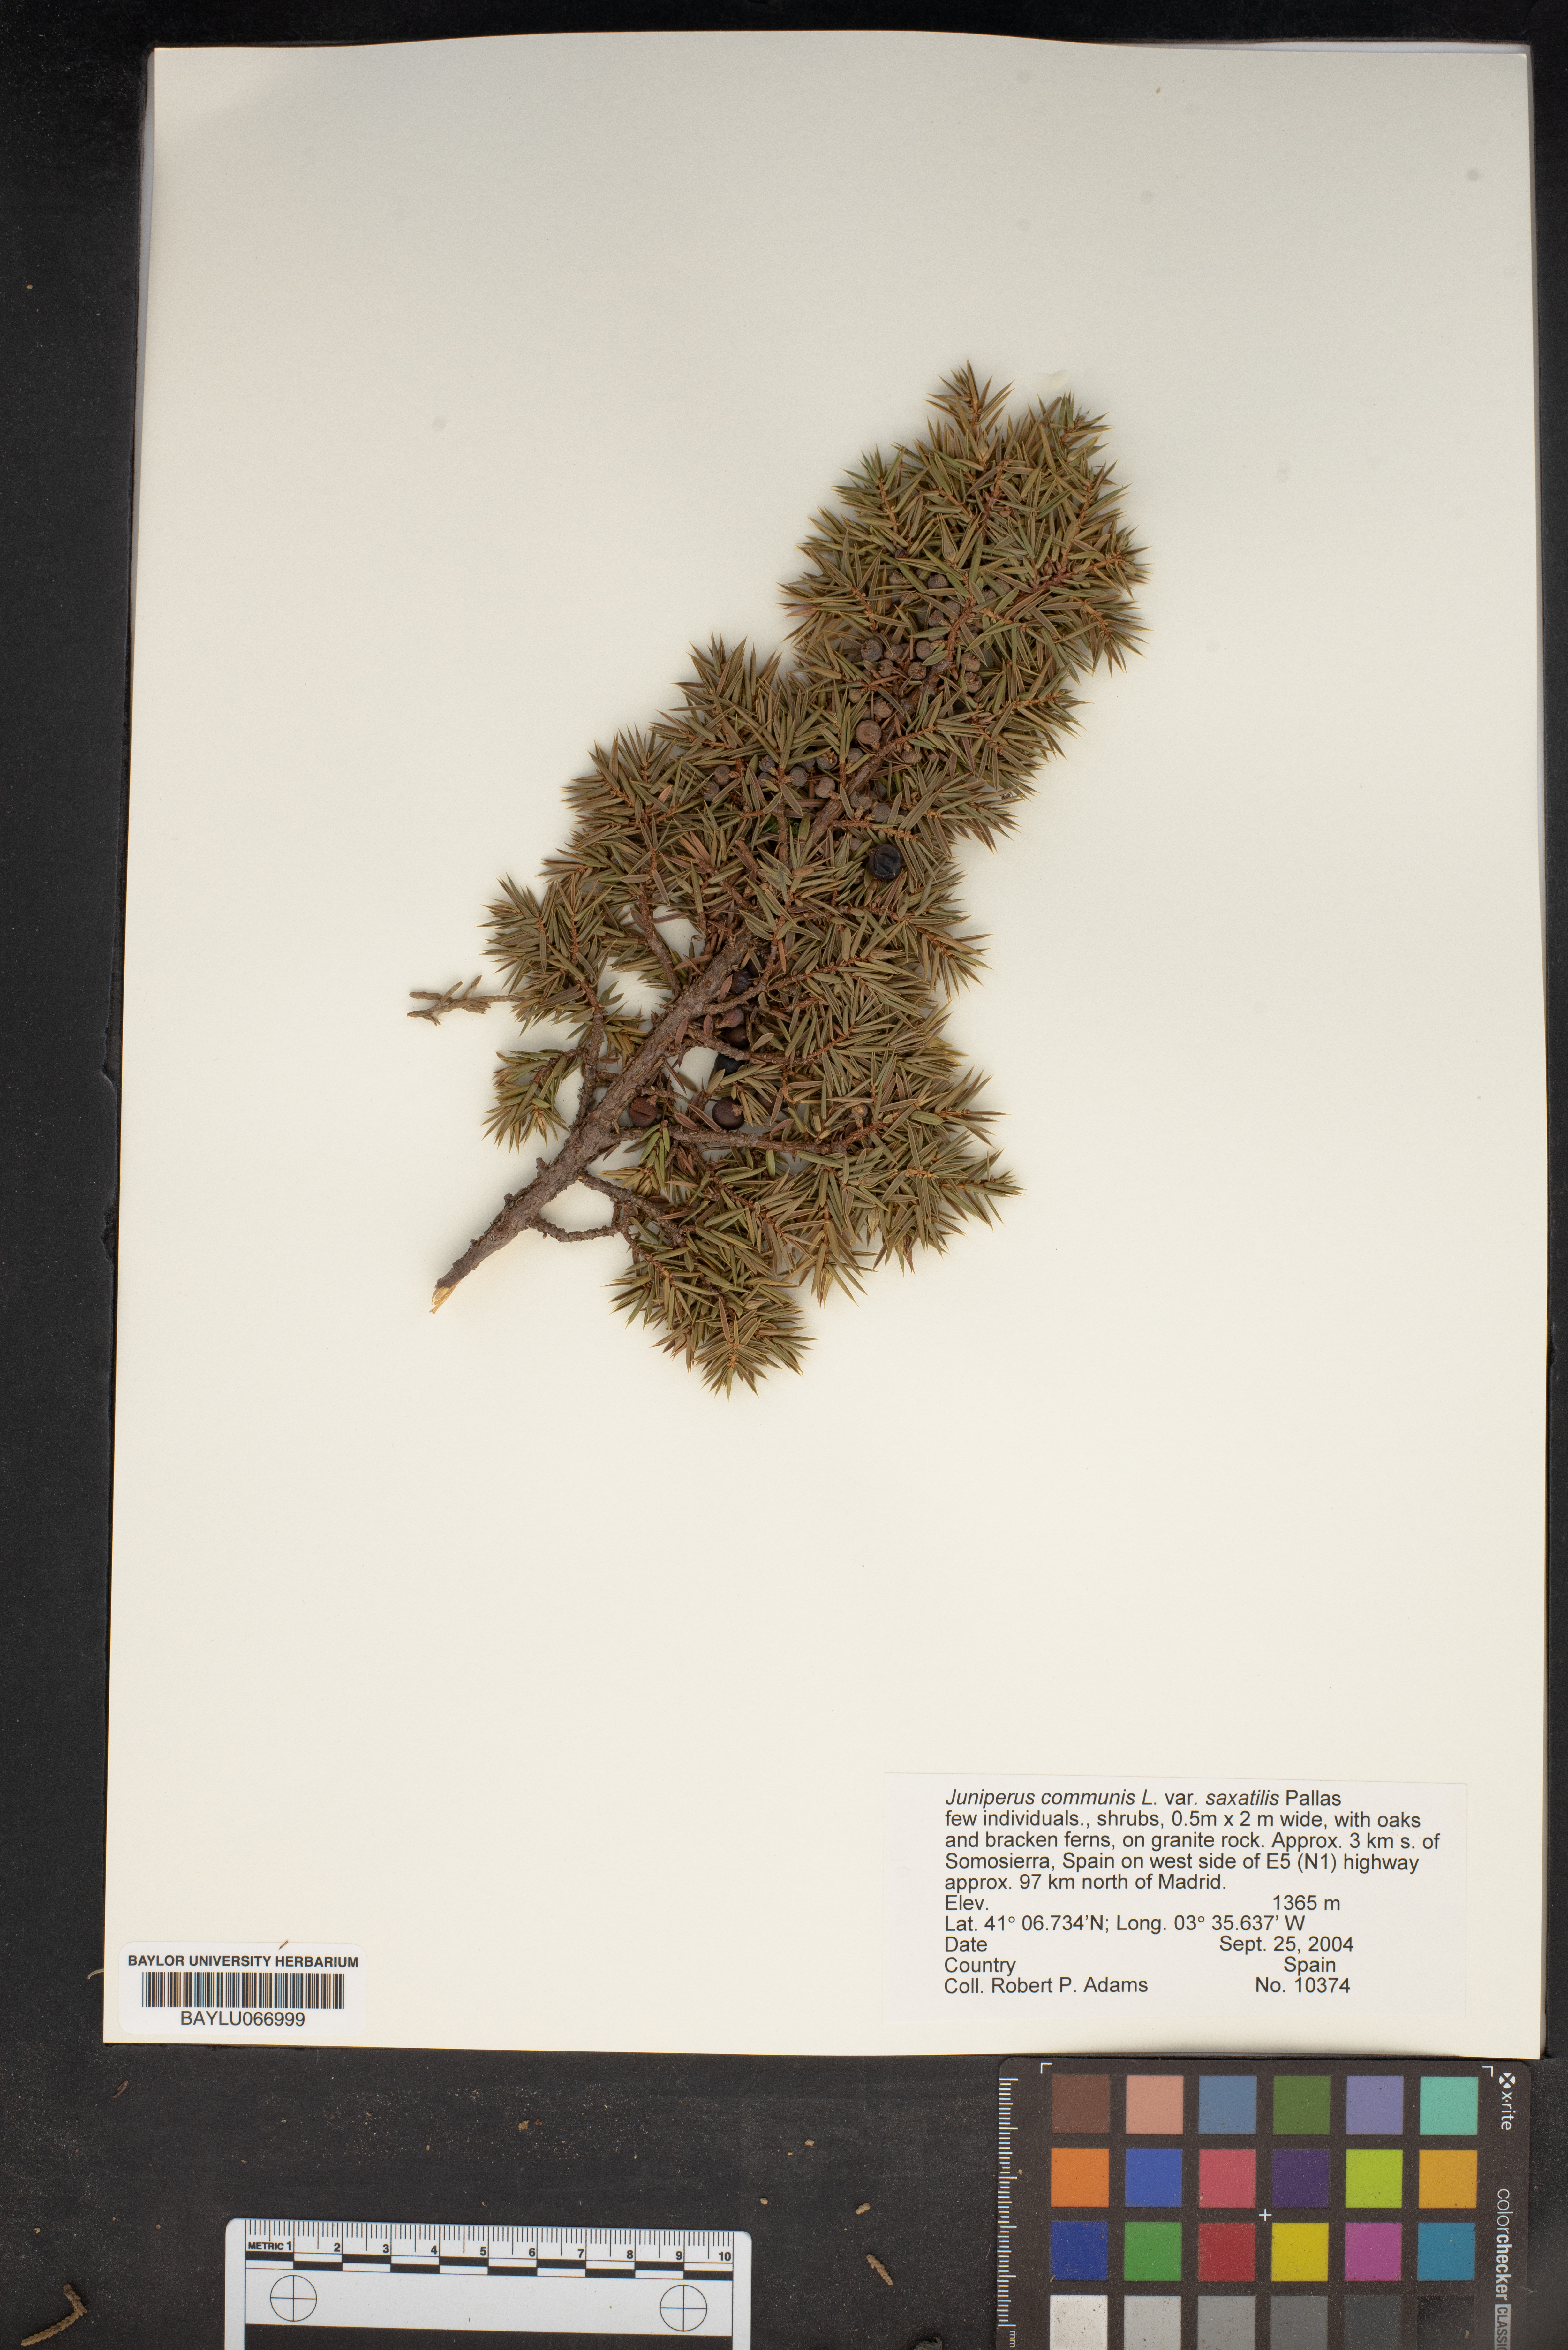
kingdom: Plantae
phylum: Tracheophyta
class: Pinopsida
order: Pinales
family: Cupressaceae
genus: Juniperus
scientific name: Juniperus communis
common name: Common juniper
